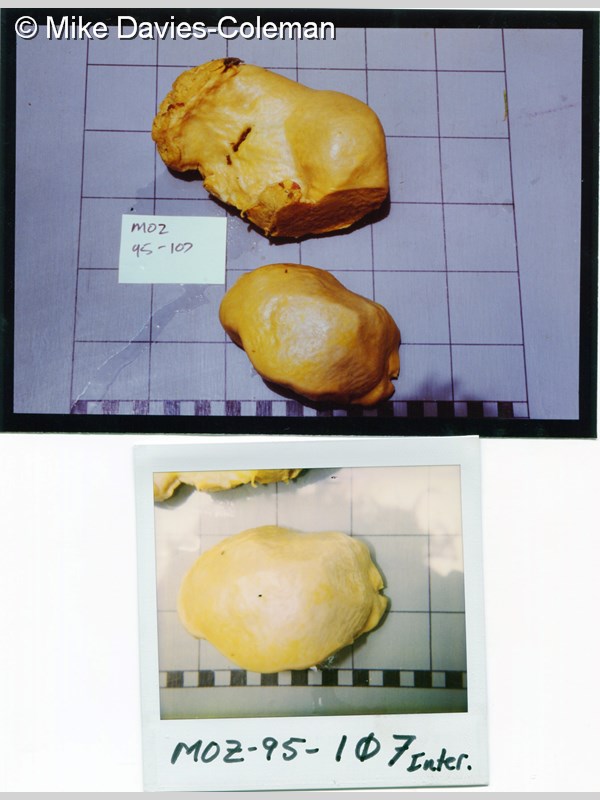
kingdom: Animalia
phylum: Porifera
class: Demospongiae
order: Tetractinellida
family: Ancorinidae
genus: Stelletta
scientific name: Stelletta
